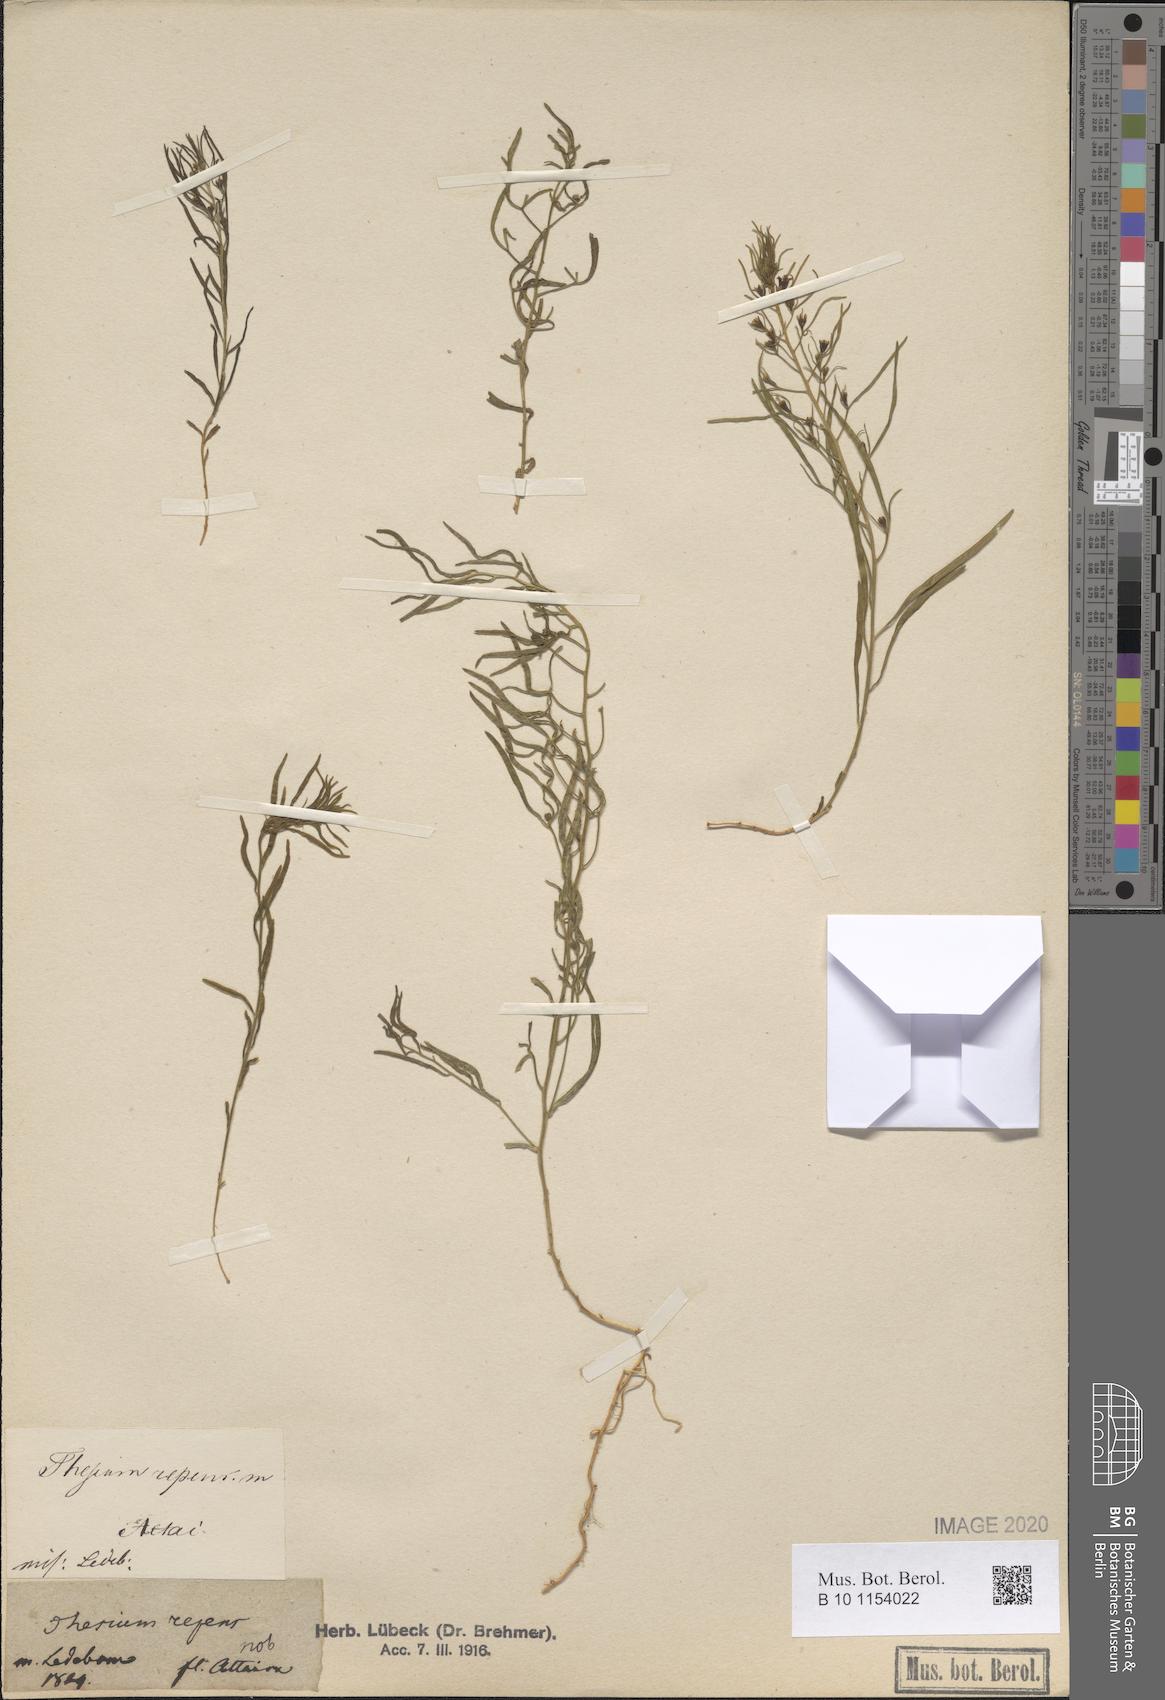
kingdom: Plantae
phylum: Tracheophyta
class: Magnoliopsida
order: Santalales
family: Thesiaceae
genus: Thesium
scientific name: Thesium repens
